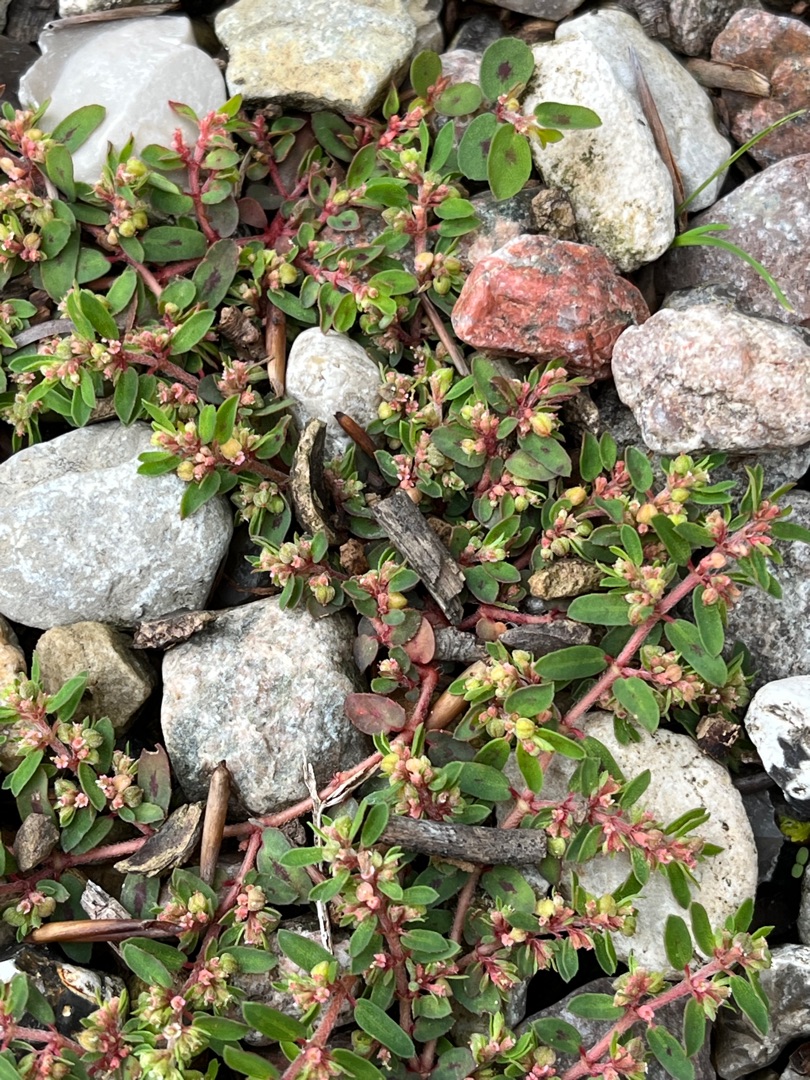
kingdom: Plantae
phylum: Tracheophyta
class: Magnoliopsida
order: Malpighiales
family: Euphorbiaceae
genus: Euphorbia
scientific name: Euphorbia maculata
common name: Plet-vortemælk
